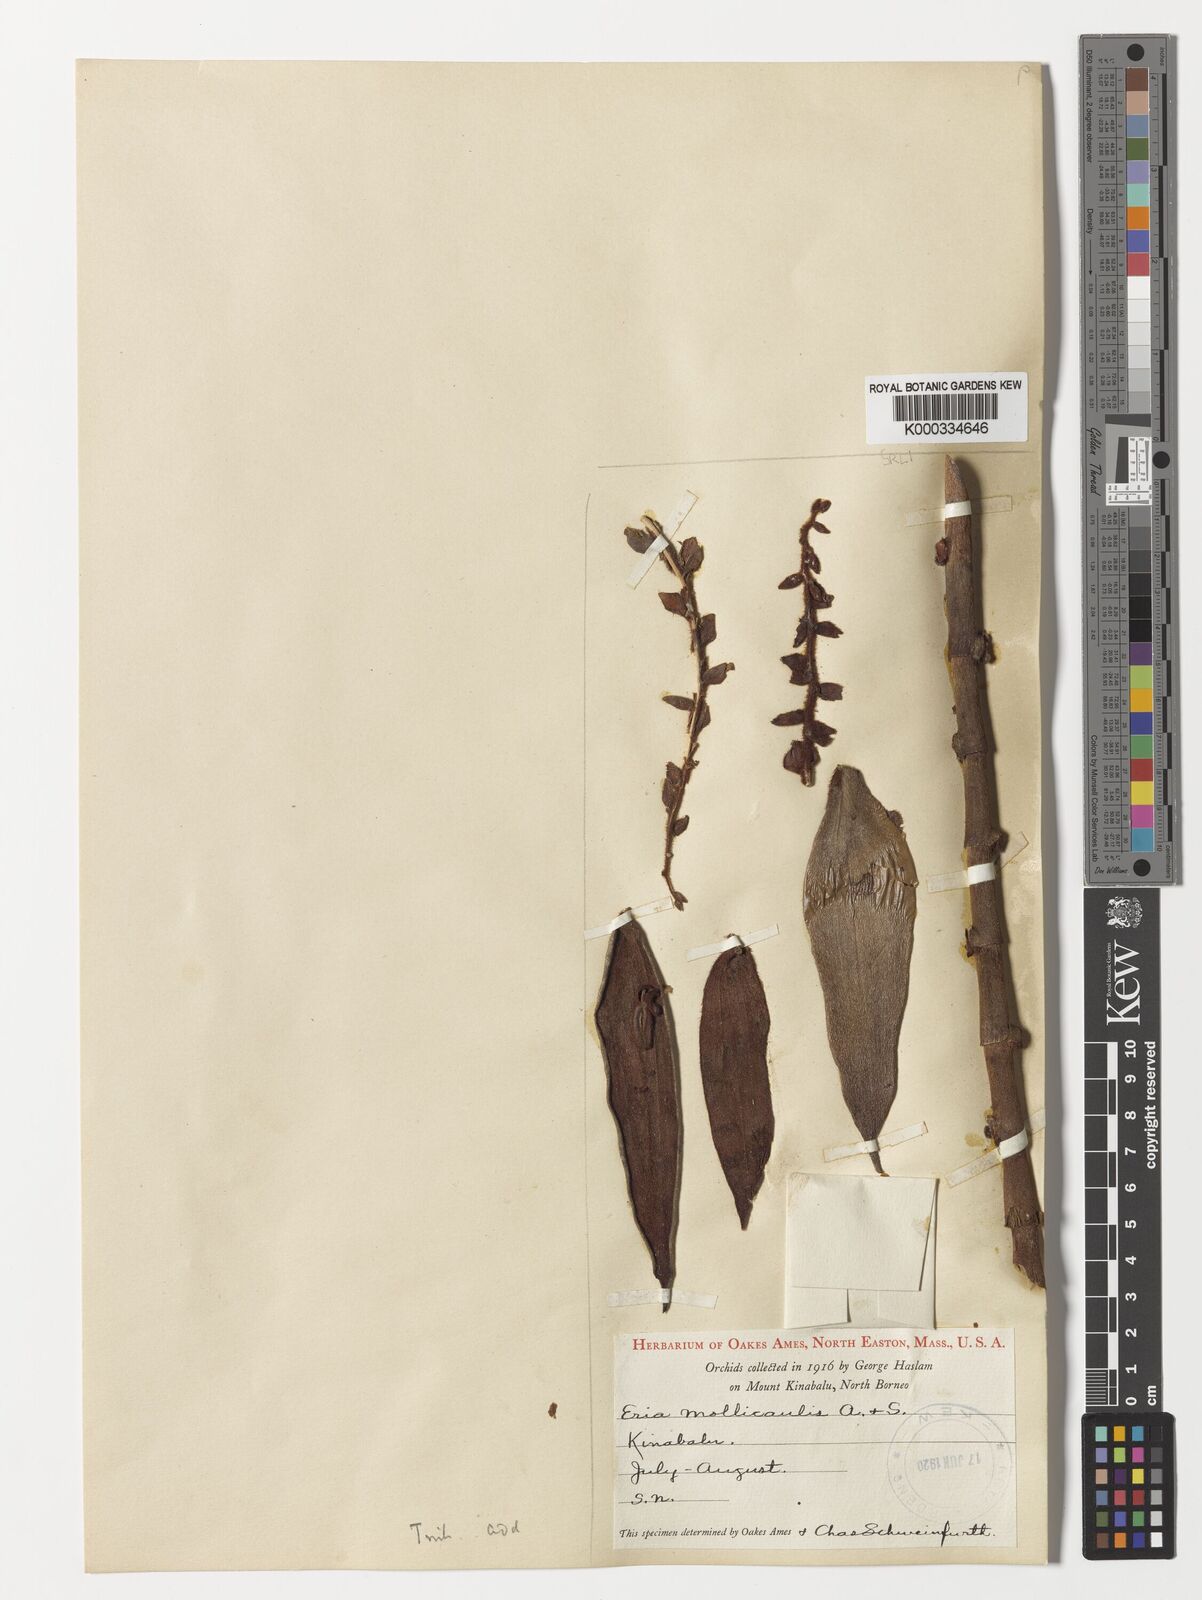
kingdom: Plantae
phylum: Tracheophyta
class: Liliopsida
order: Asparagales
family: Orchidaceae
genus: Trichotosia
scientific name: Trichotosia mollicaulis
